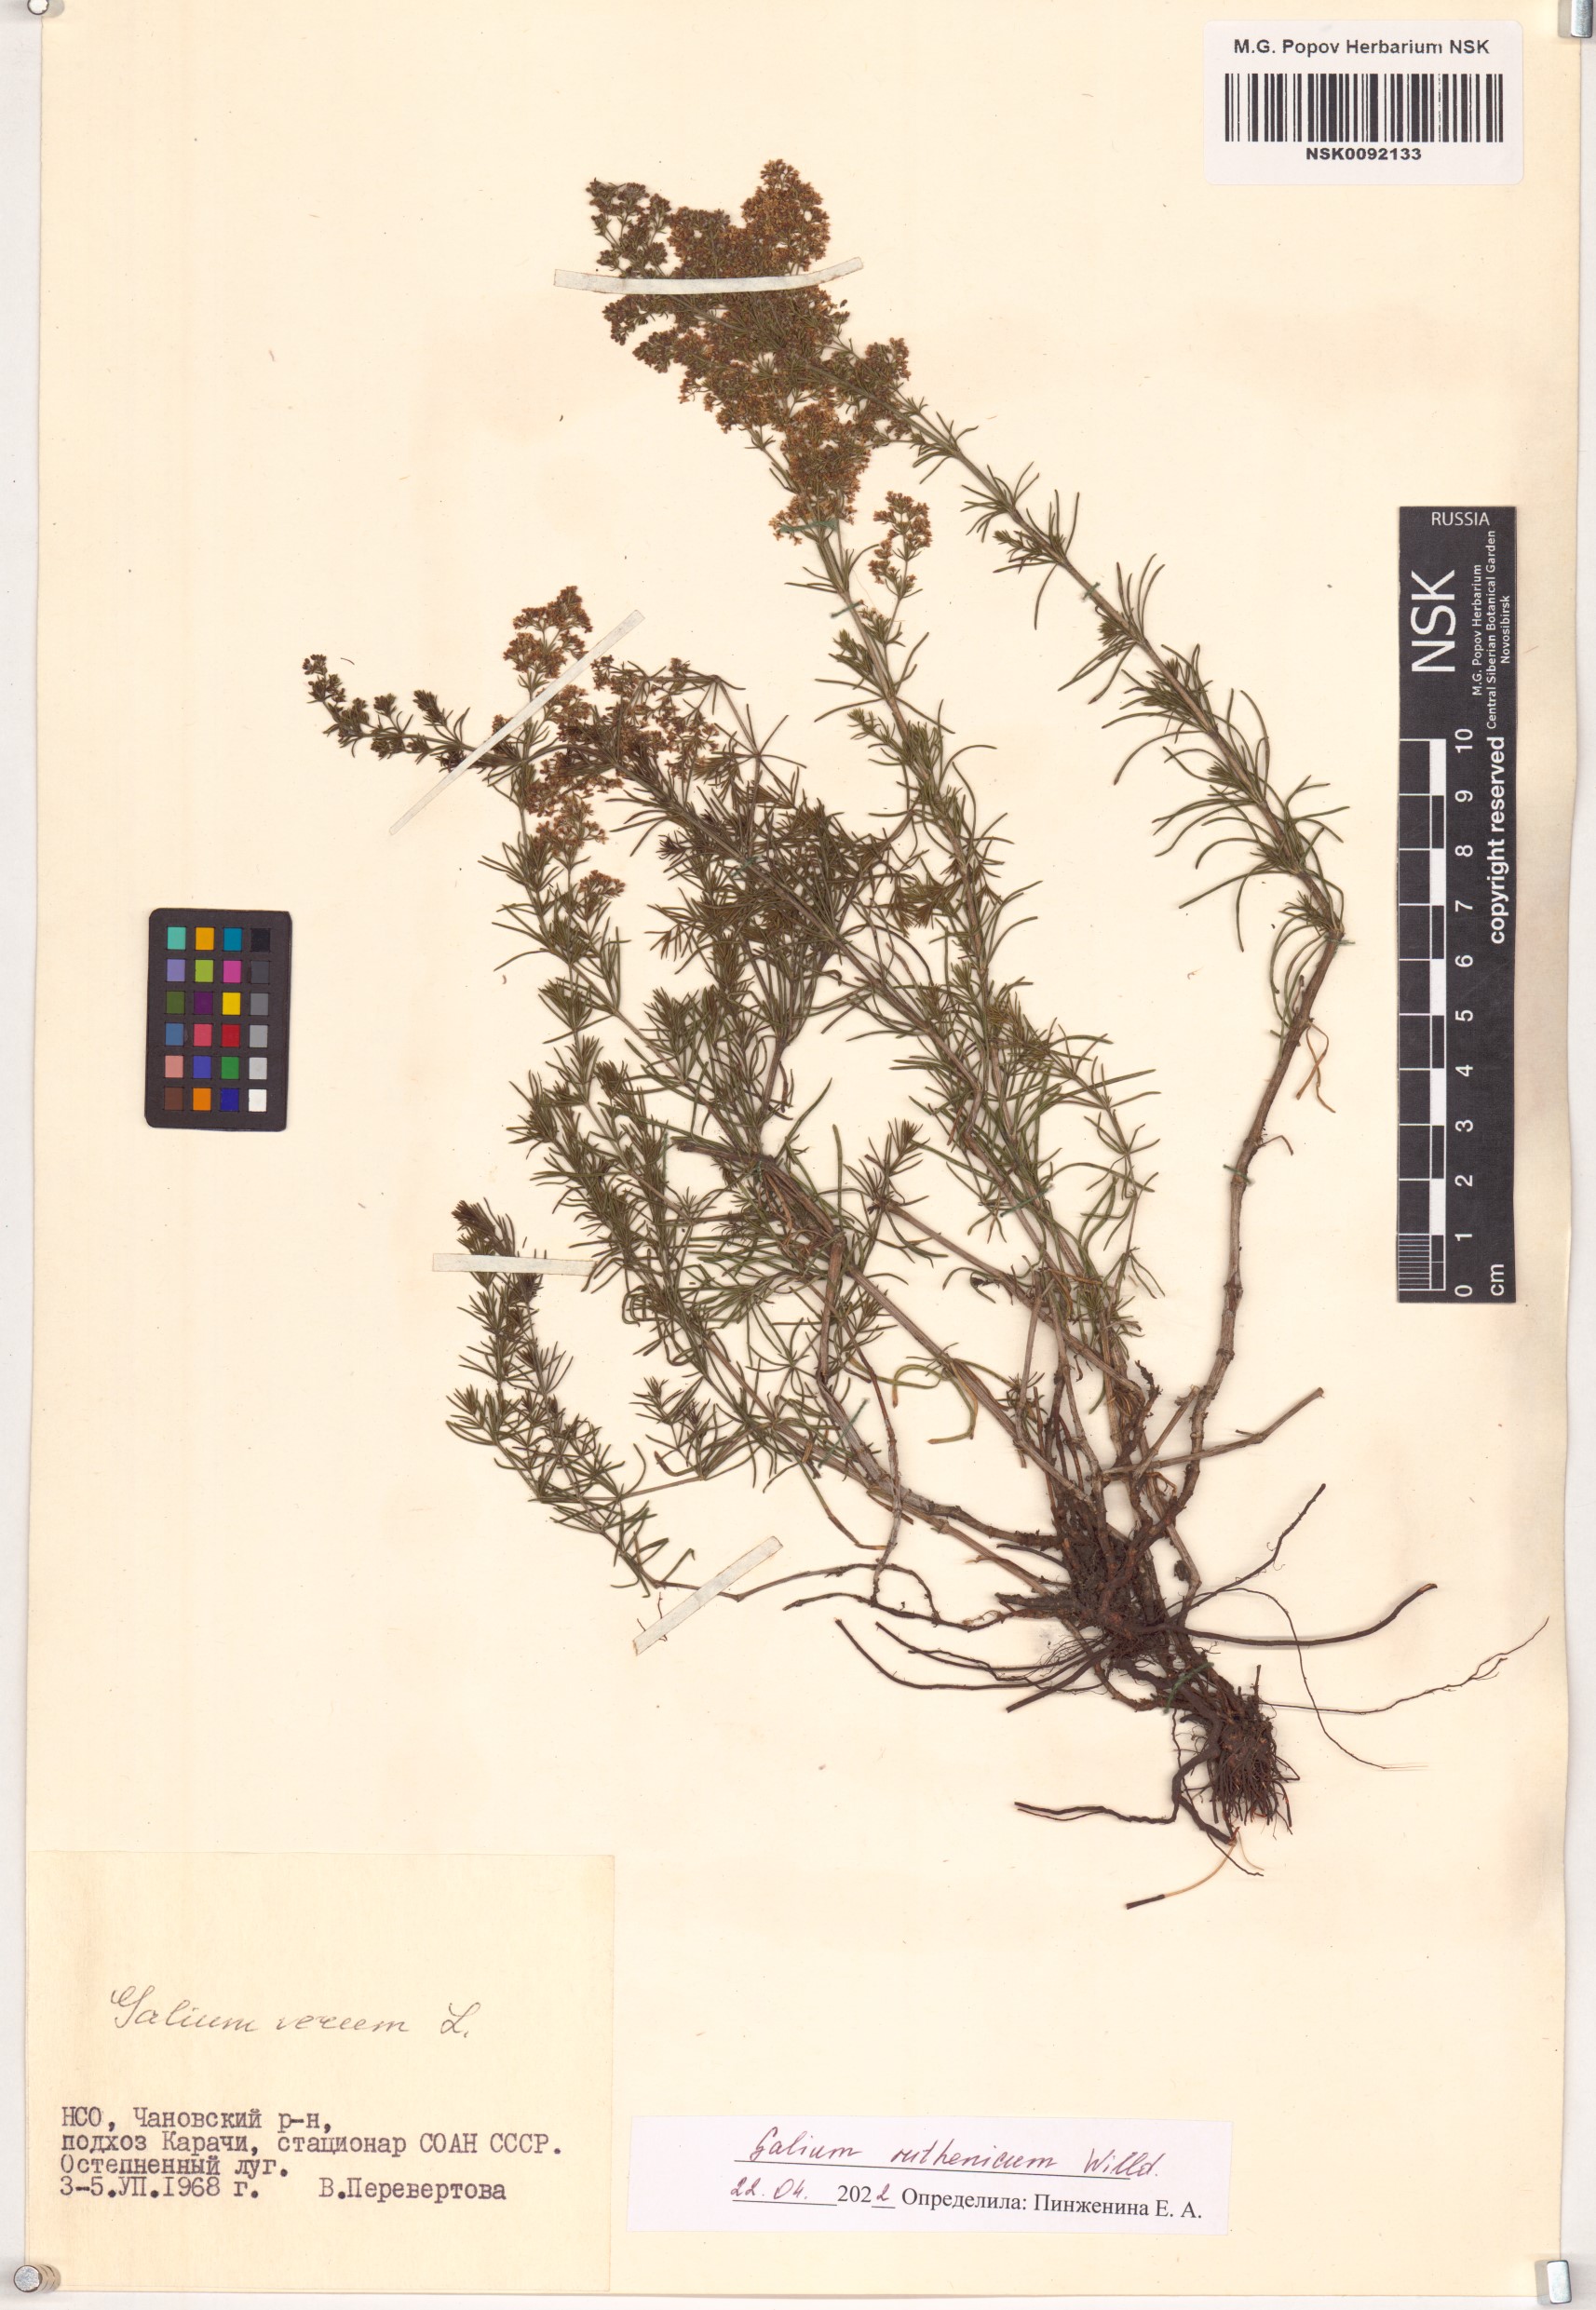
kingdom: Plantae
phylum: Tracheophyta
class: Magnoliopsida
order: Gentianales
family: Rubiaceae
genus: Galium
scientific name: Galium verum
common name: Lady's bedstraw
